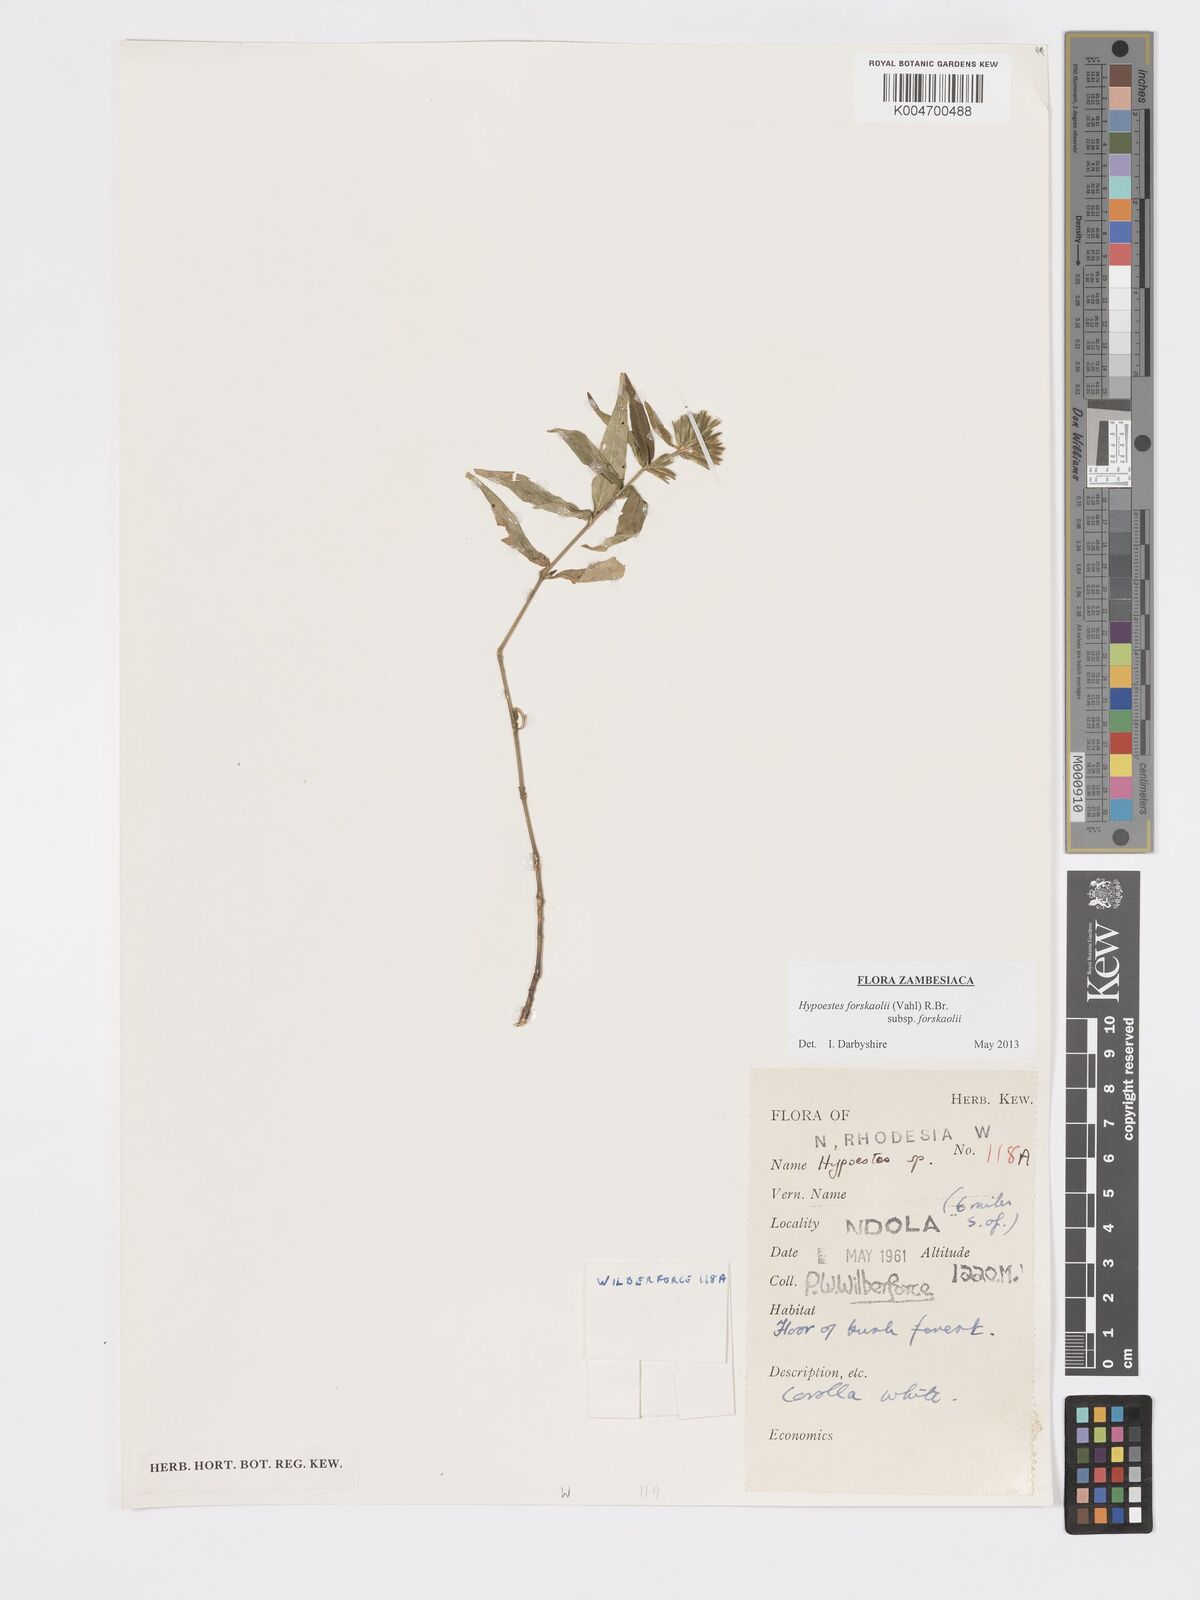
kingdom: Plantae
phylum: Tracheophyta
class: Magnoliopsida
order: Lamiales
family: Acanthaceae
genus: Hypoestes
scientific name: Hypoestes forskaolii
